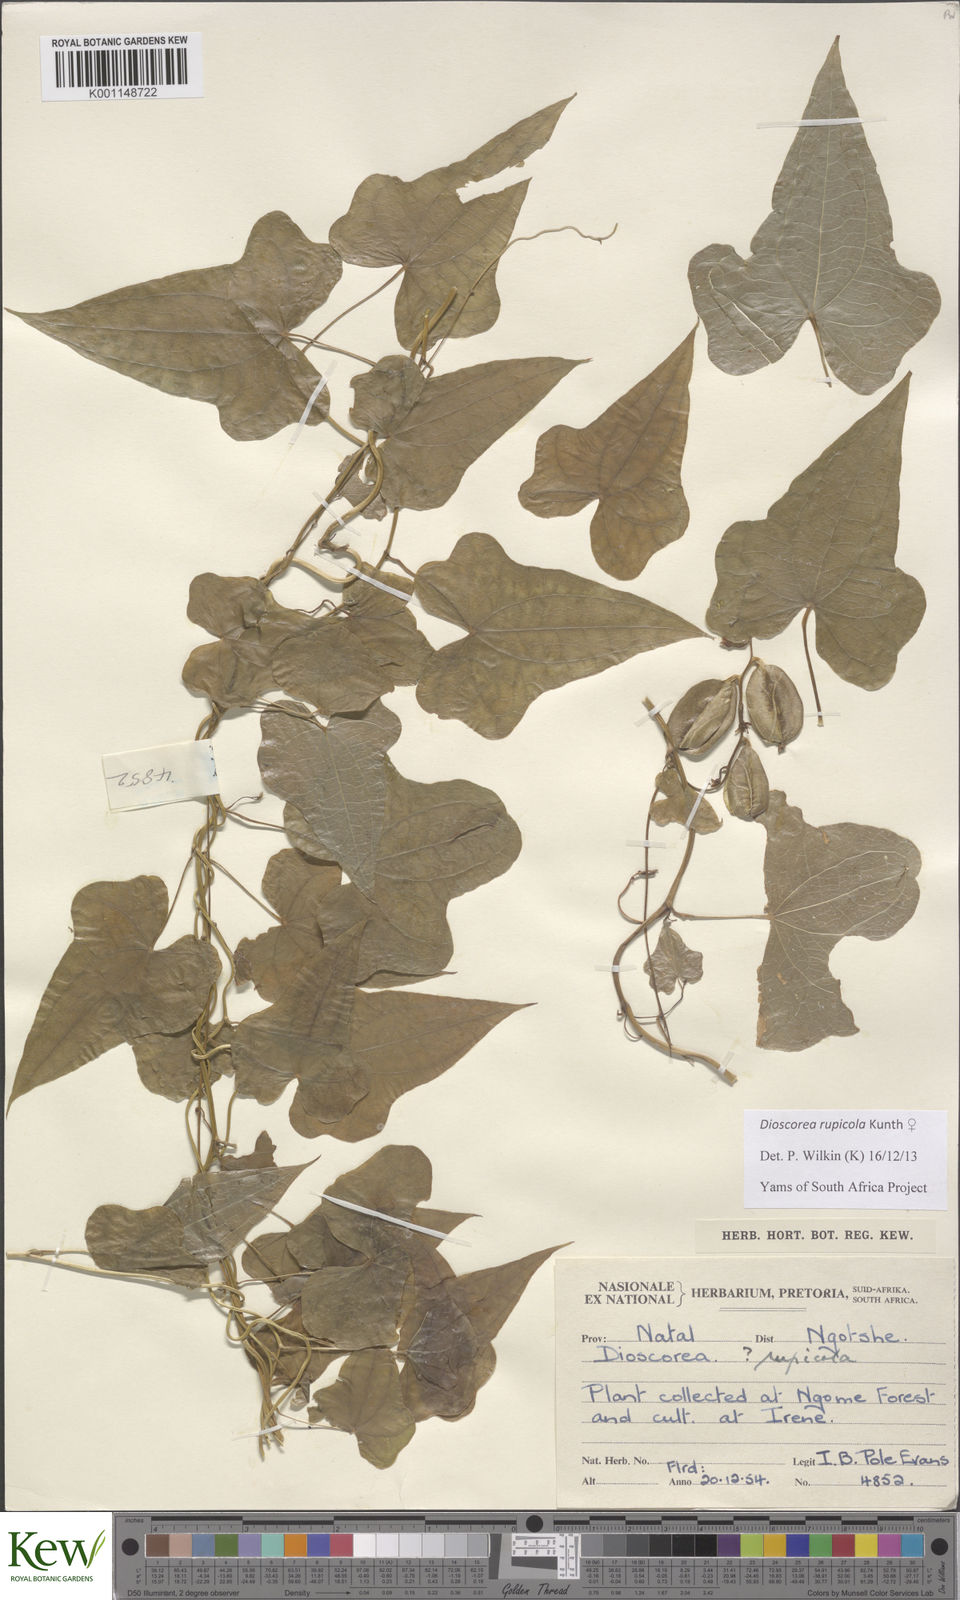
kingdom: Plantae
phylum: Tracheophyta
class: Liliopsida
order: Dioscoreales
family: Dioscoreaceae
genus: Dioscorea
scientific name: Dioscorea rupicola
